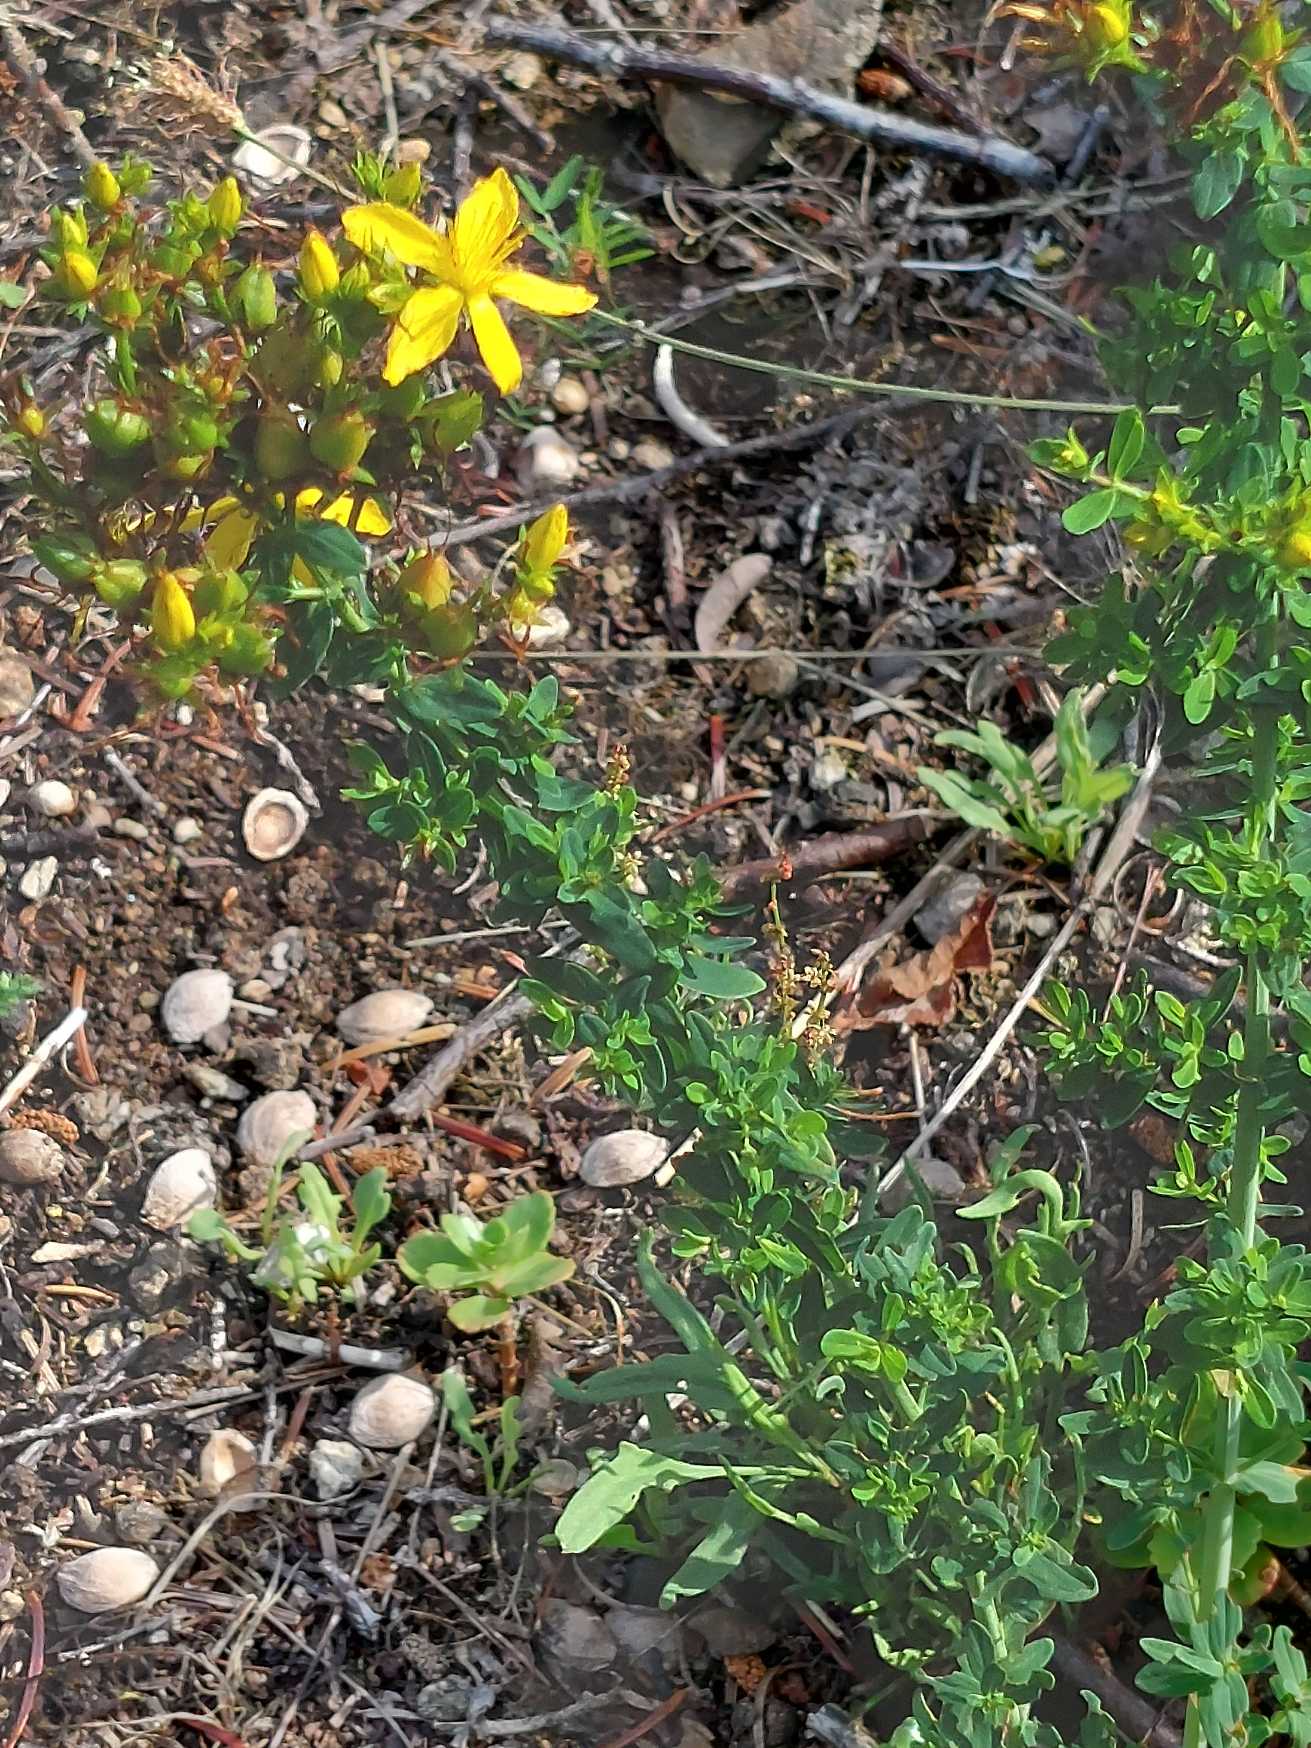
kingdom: Plantae
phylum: Tracheophyta
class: Magnoliopsida
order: Malpighiales
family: Hypericaceae
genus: Hypericum
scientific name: Hypericum perforatum
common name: Prikbladet perikon
